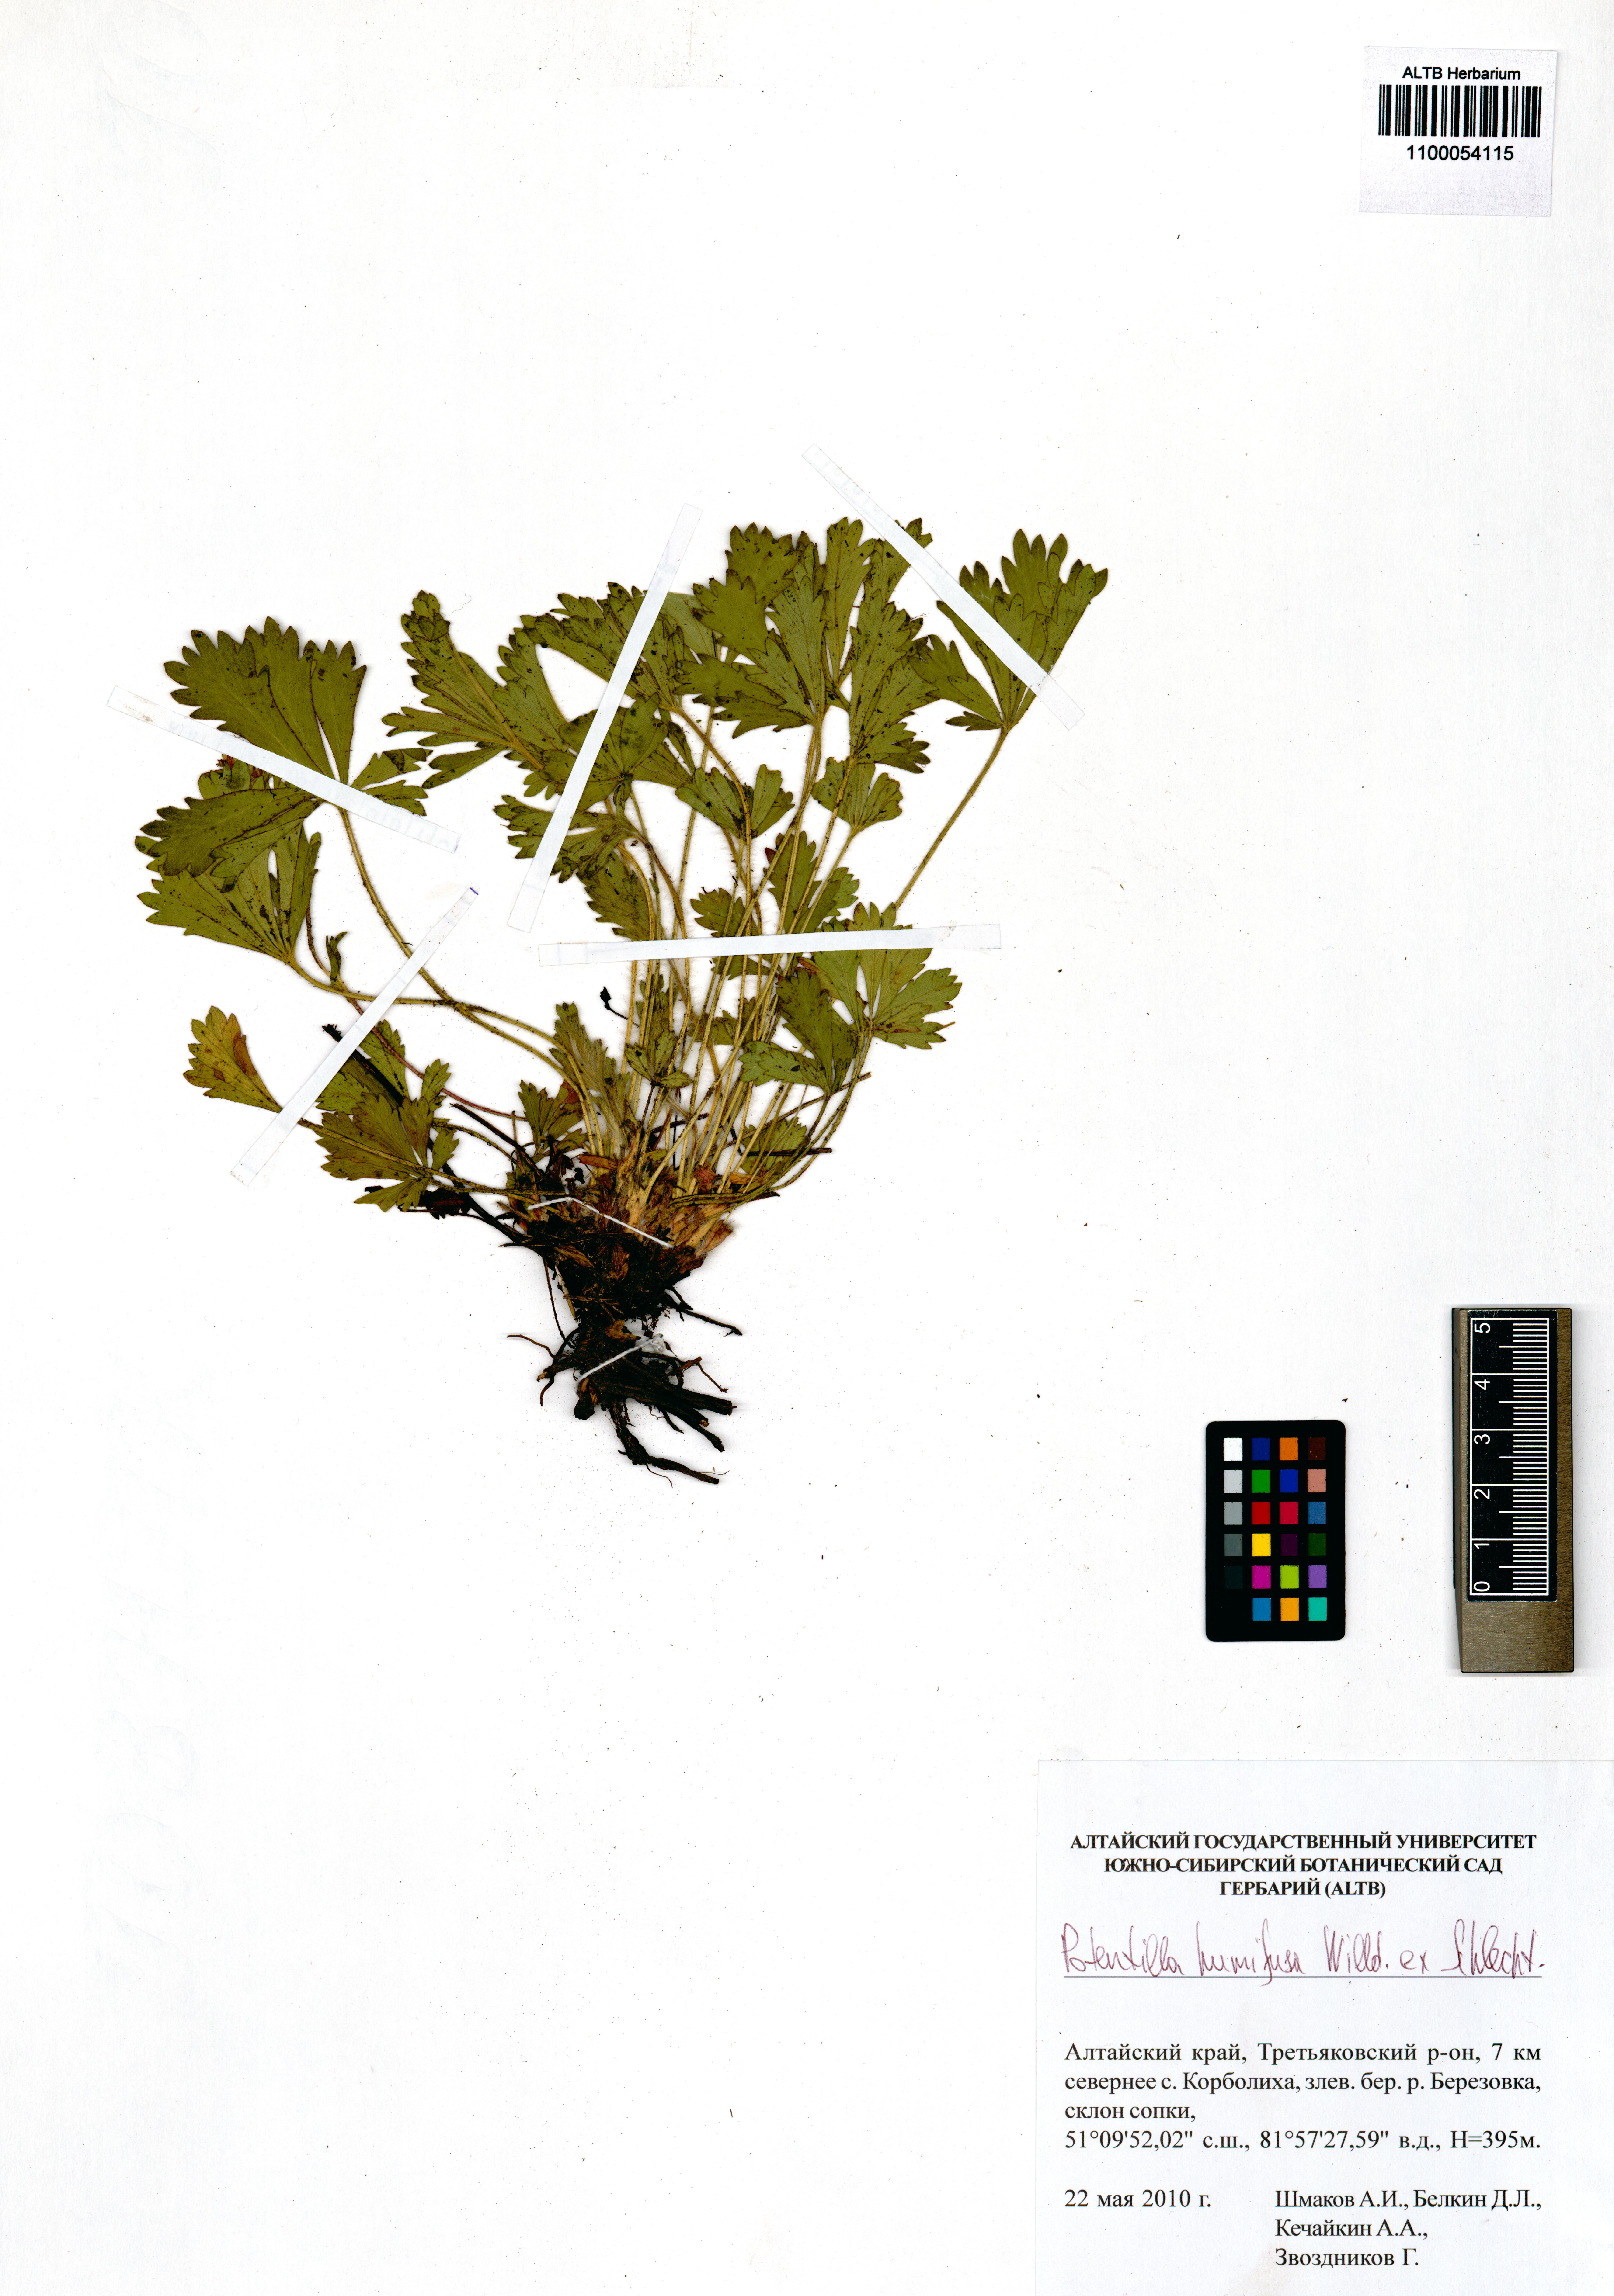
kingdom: Plantae
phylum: Tracheophyta
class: Magnoliopsida
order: Rosales
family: Rosaceae
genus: Potentilla
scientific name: Potentilla humifusa
